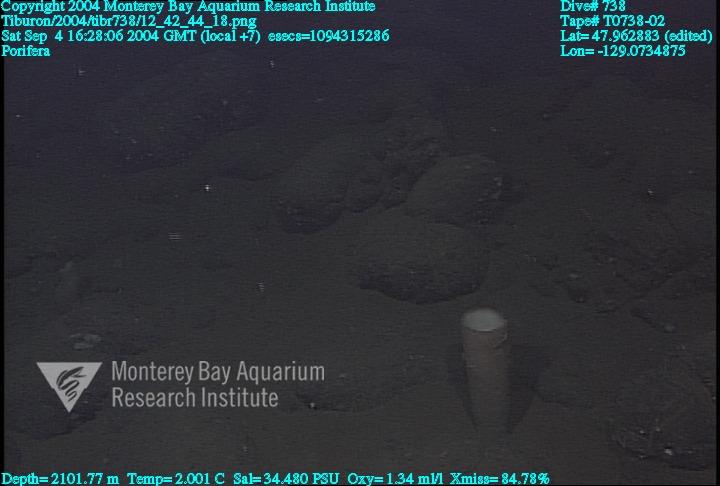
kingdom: Animalia
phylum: Porifera
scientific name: Porifera
